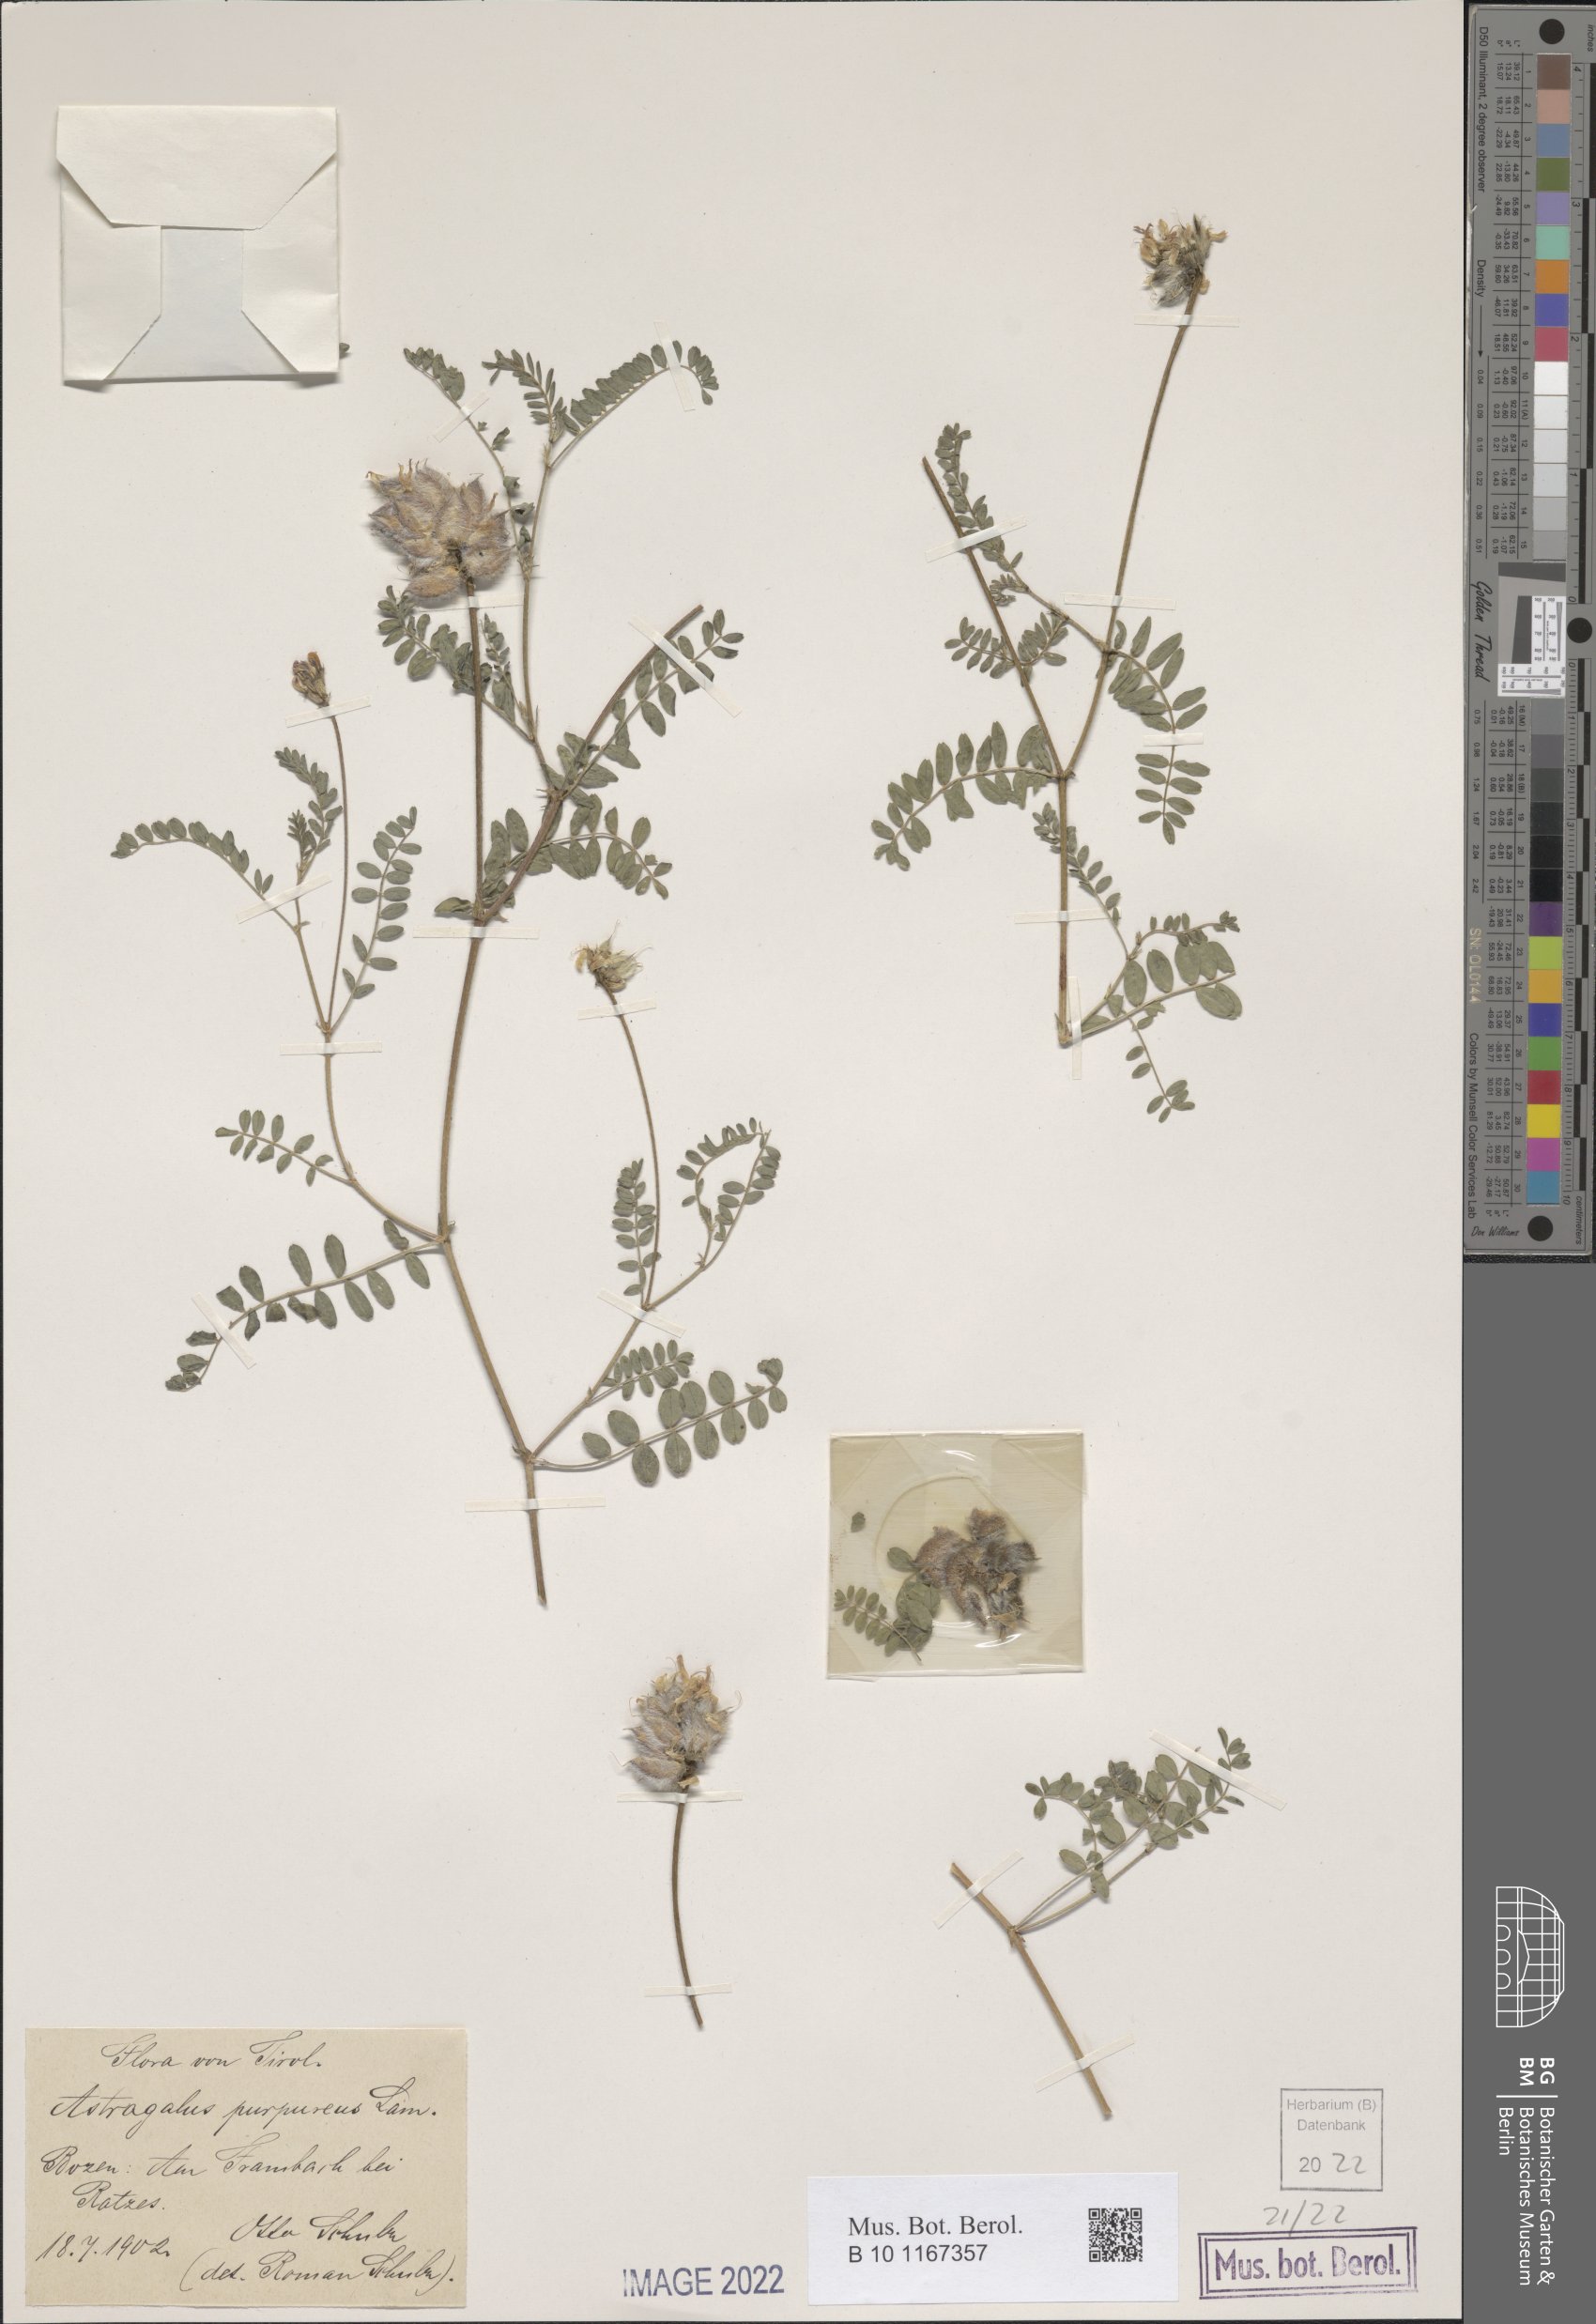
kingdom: Plantae
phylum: Tracheophyta
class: Magnoliopsida
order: Fabales
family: Fabaceae
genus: Astragalus
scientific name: Astragalus hypoglottis
